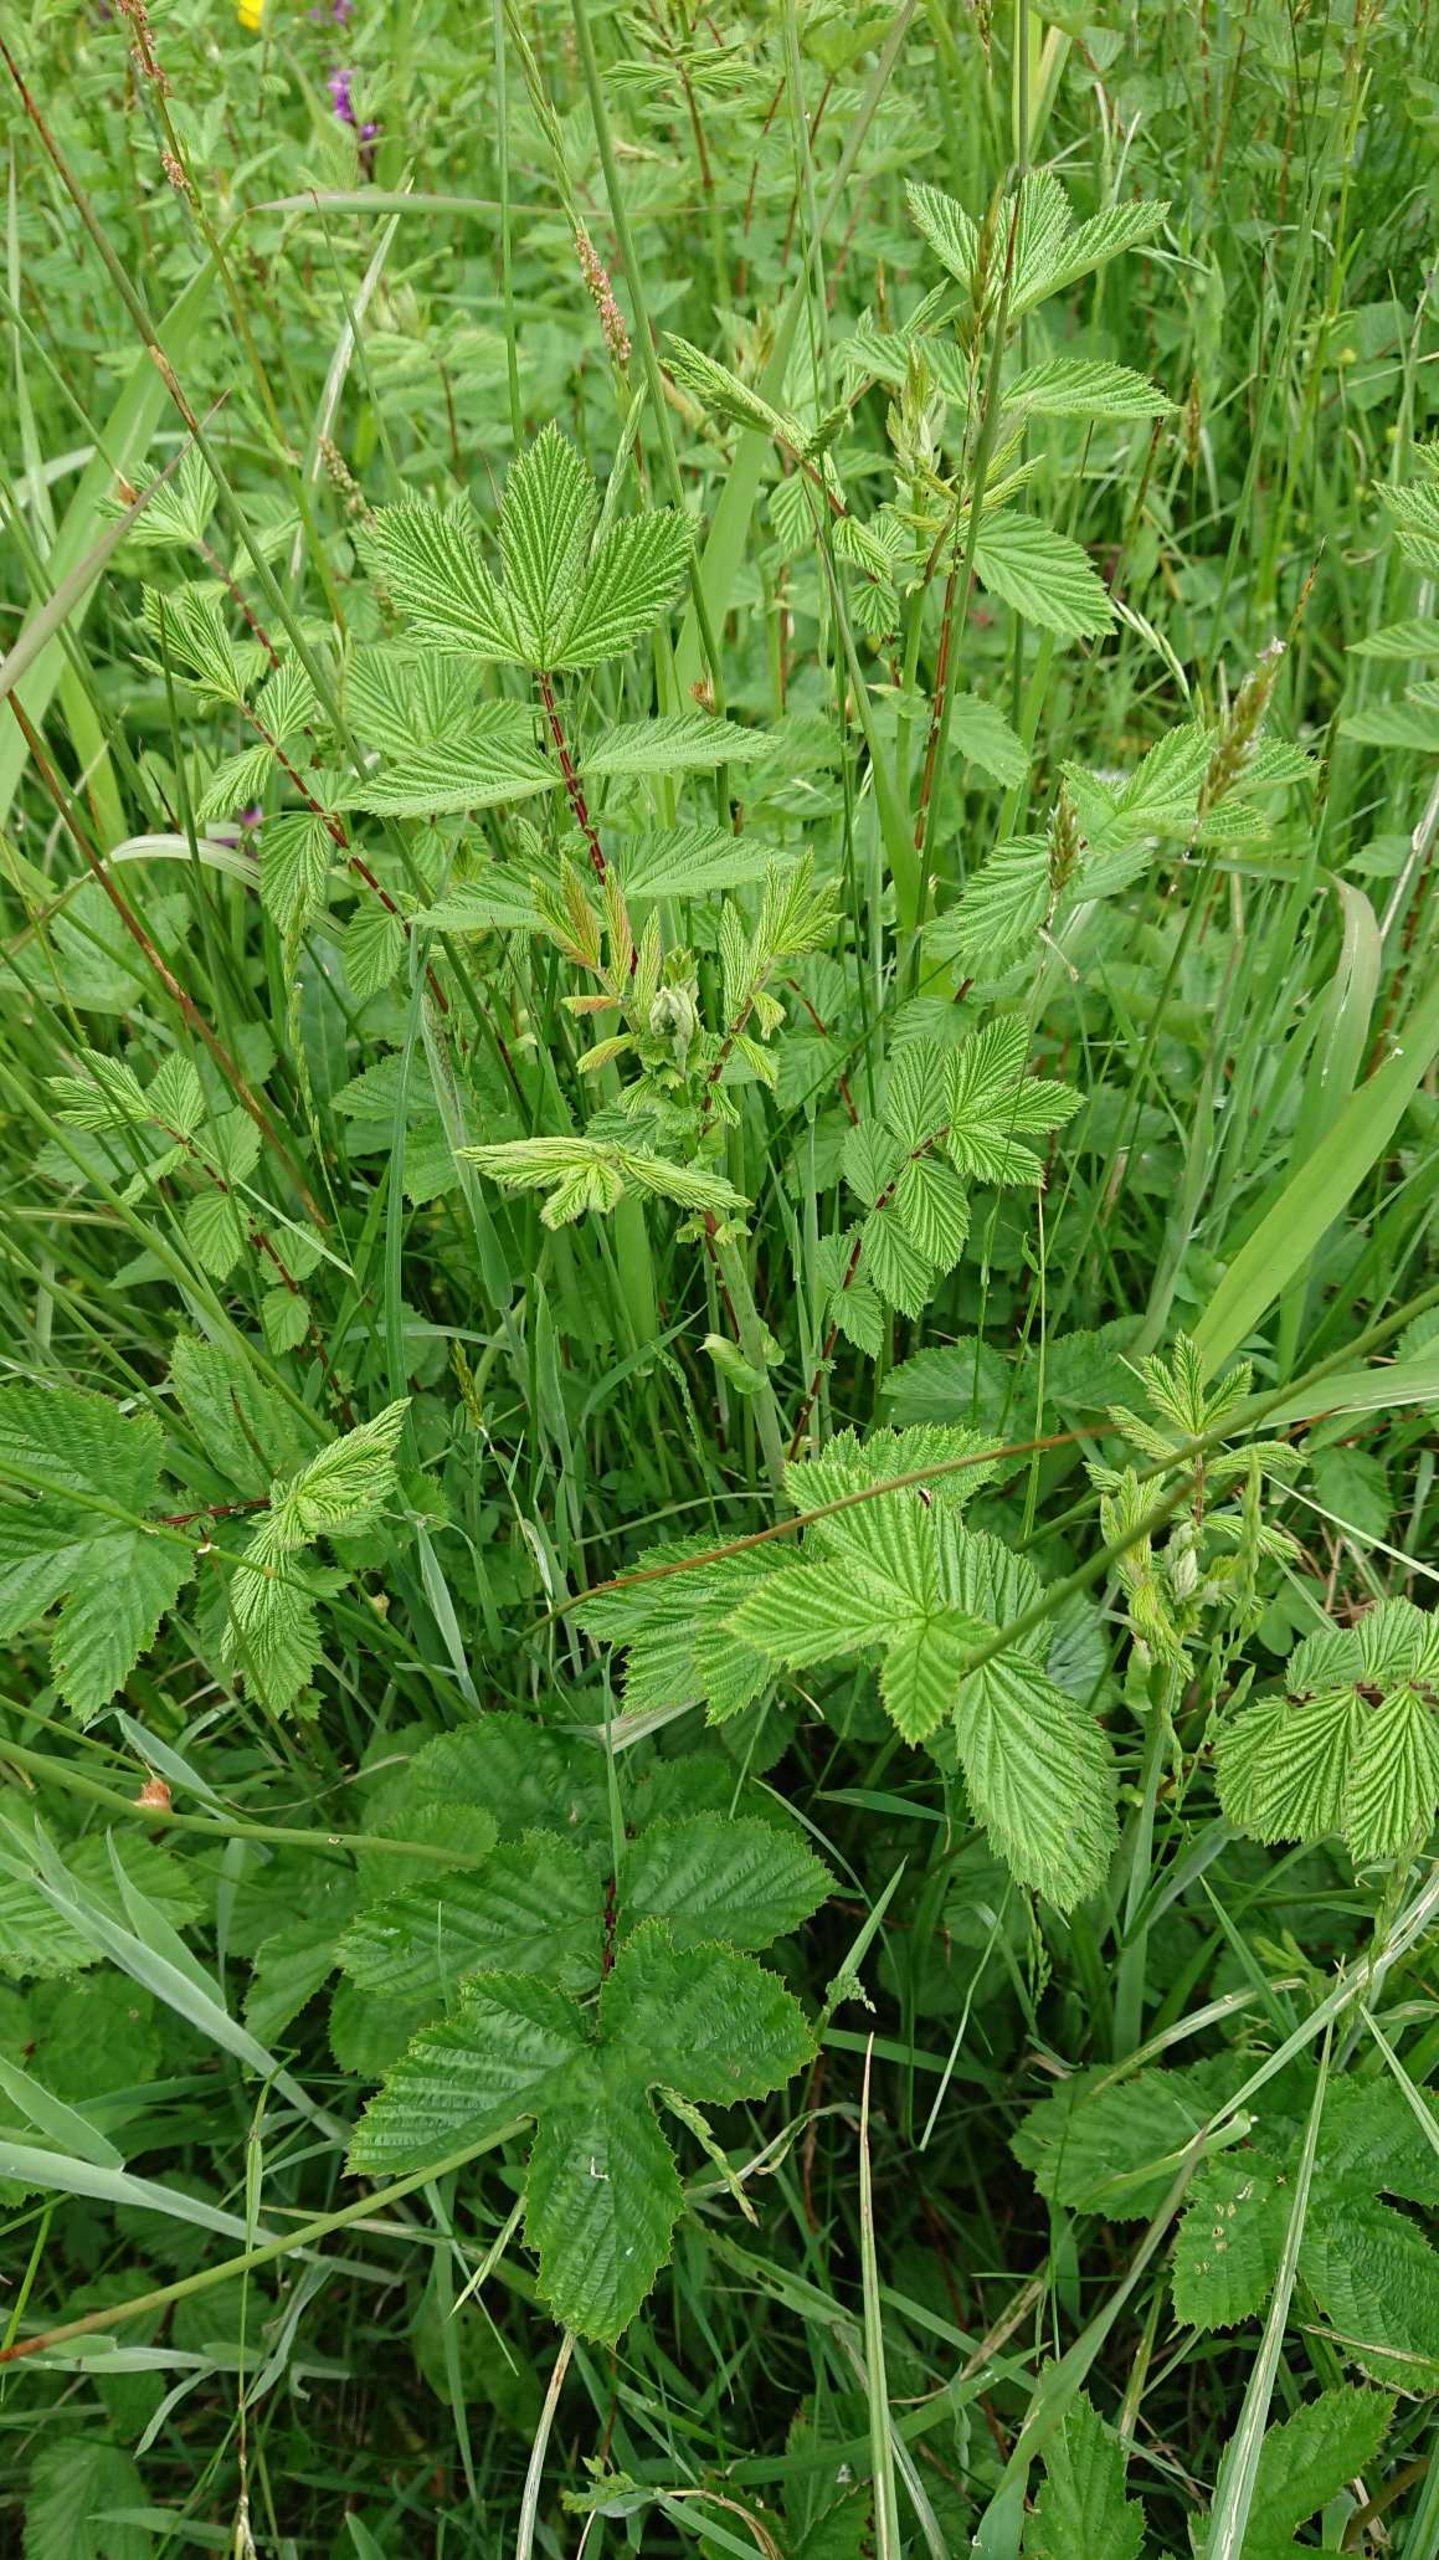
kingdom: Plantae
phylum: Tracheophyta
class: Magnoliopsida
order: Rosales
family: Rosaceae
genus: Filipendula
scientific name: Filipendula ulmaria
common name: Almindelig mjødurt
